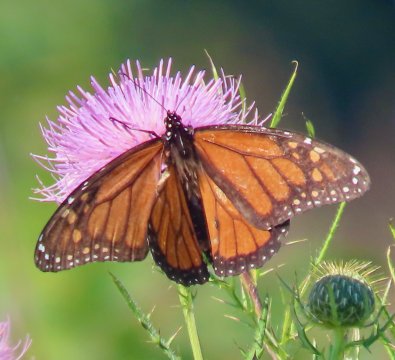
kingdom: Animalia
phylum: Arthropoda
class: Insecta
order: Lepidoptera
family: Nymphalidae
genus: Danaus
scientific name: Danaus plexippus
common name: Monarch
